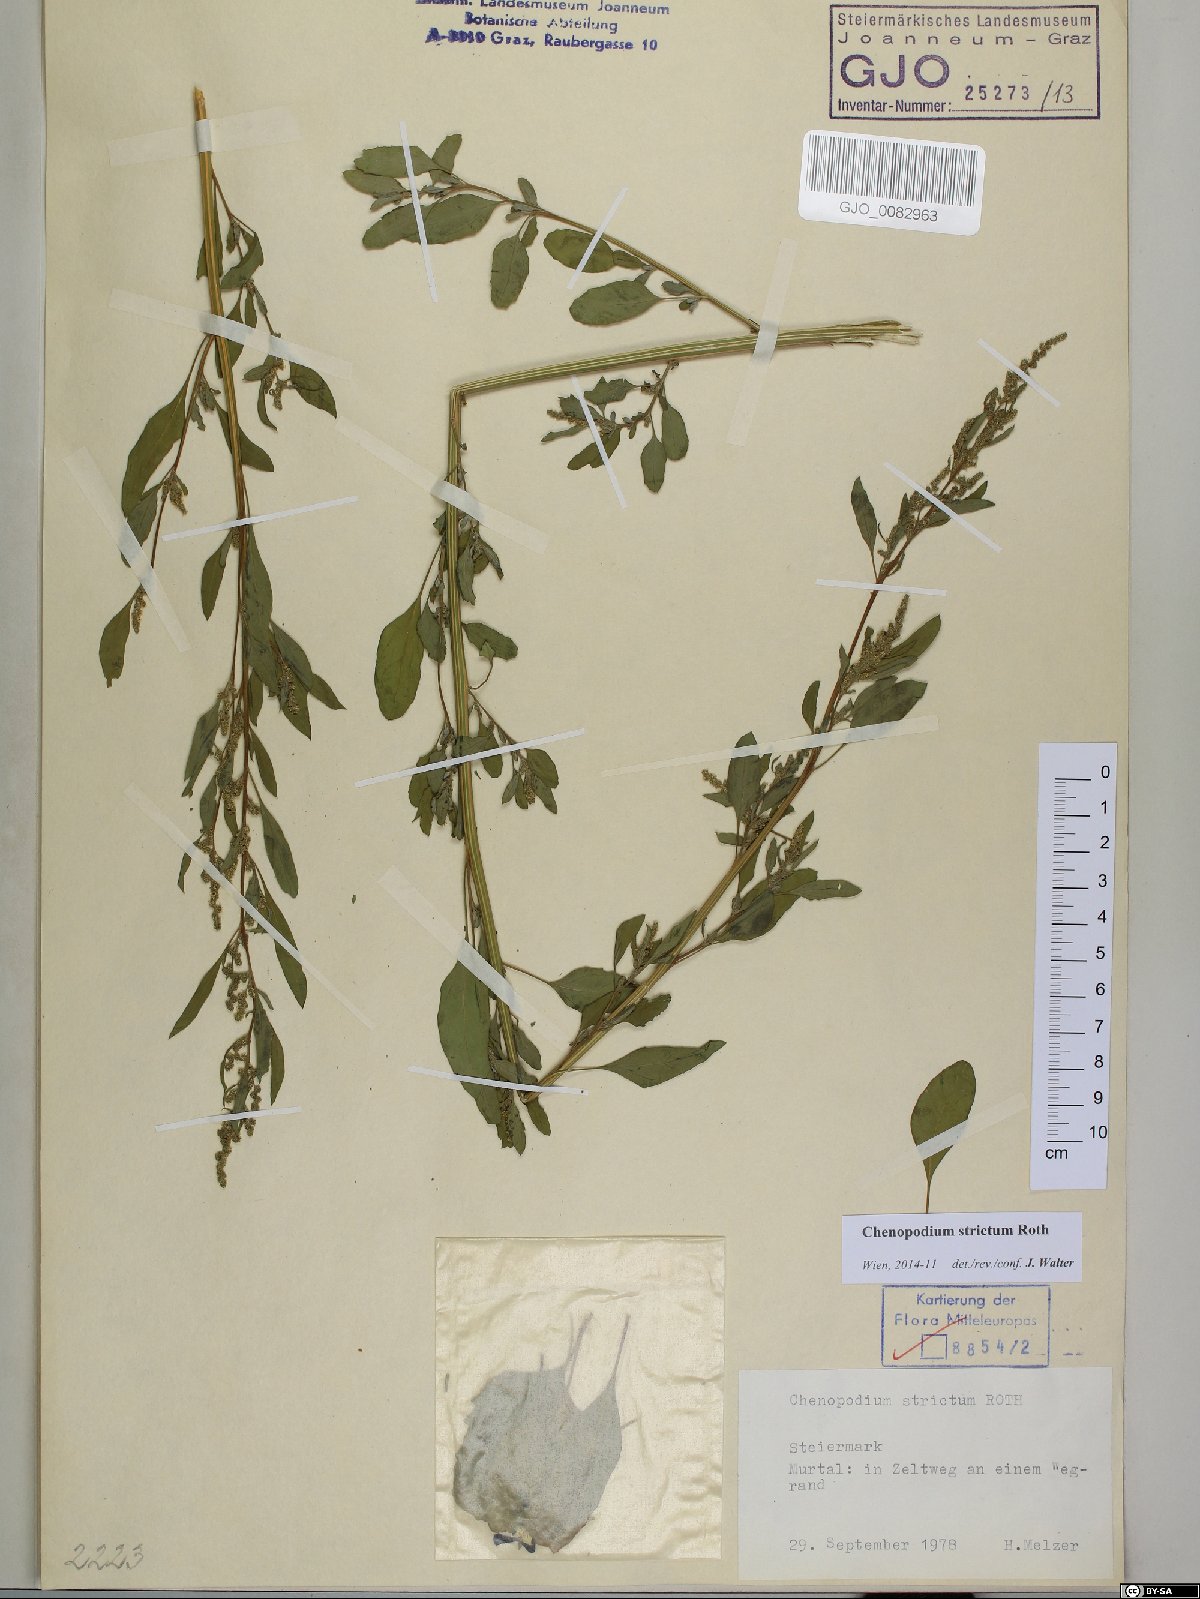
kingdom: Plantae
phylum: Tracheophyta
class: Magnoliopsida
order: Caryophyllales
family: Amaranthaceae
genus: Chenopodium
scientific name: Chenopodium album
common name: Fat-hen
